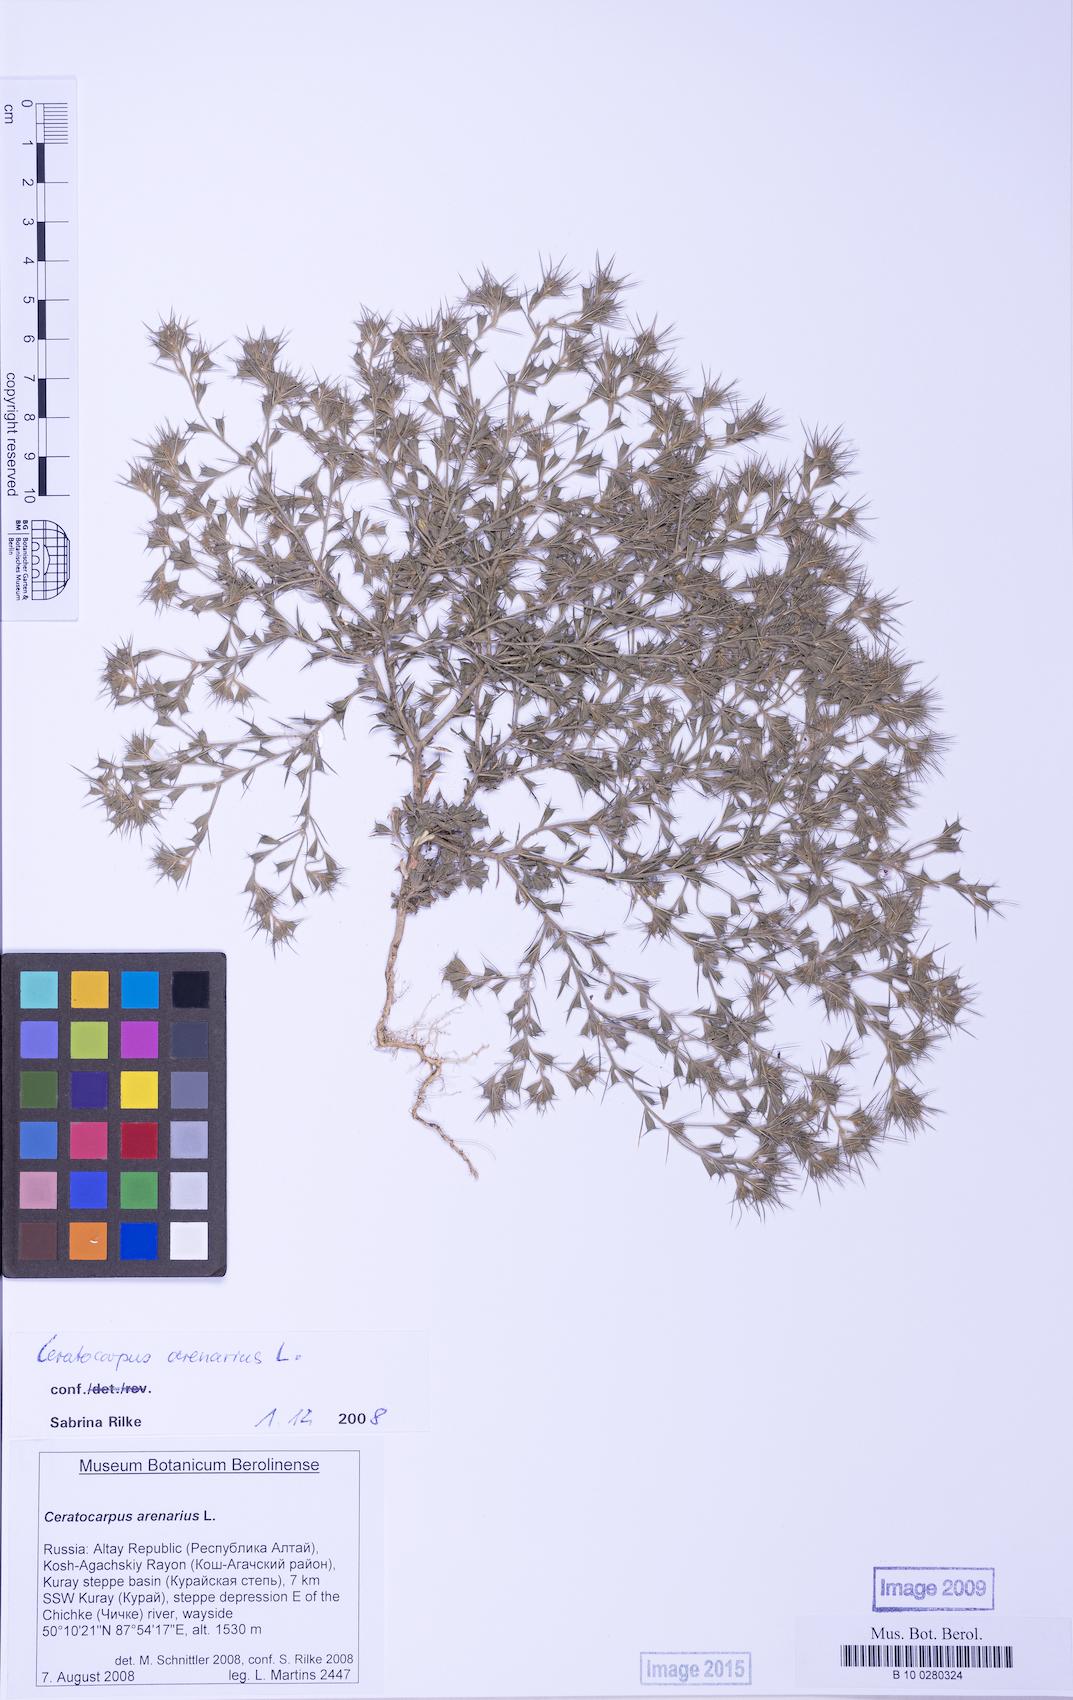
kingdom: Plantae
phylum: Tracheophyta
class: Magnoliopsida
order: Caryophyllales
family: Amaranthaceae
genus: Ceratocarpus
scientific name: Ceratocarpus arenarius
